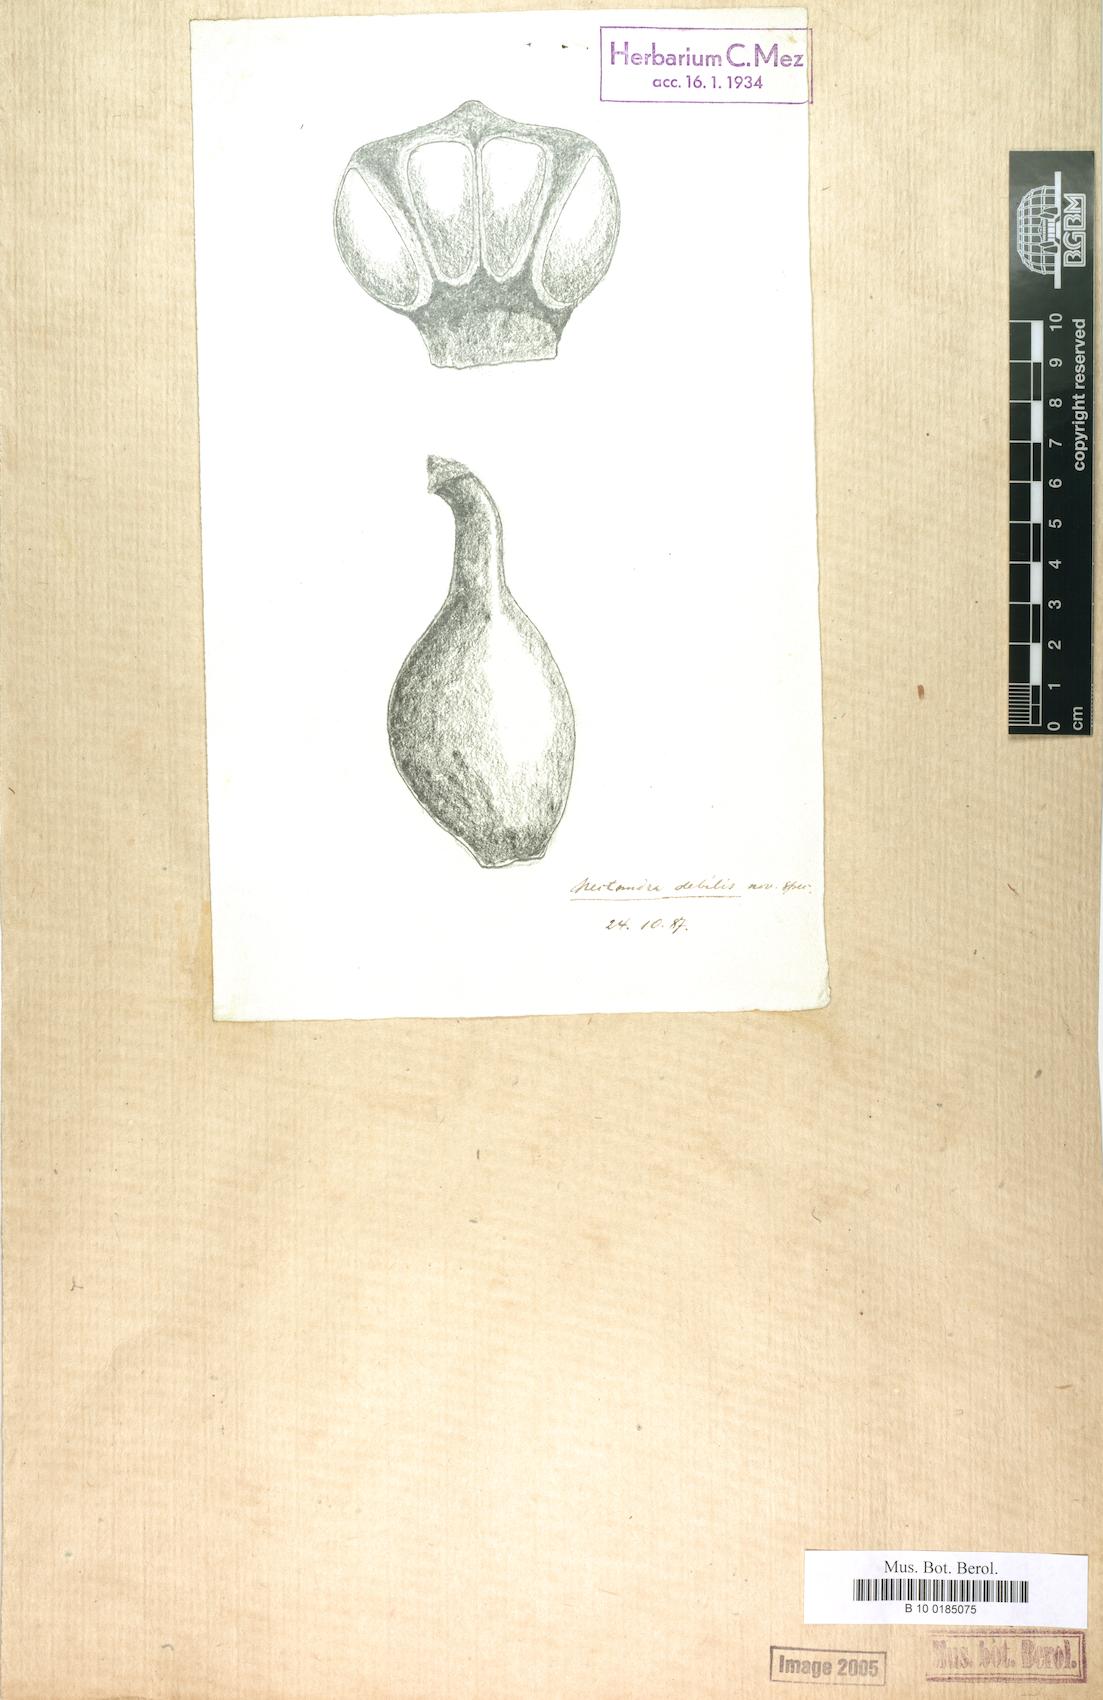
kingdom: Plantae
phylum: Tracheophyta
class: Magnoliopsida
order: Laurales
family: Lauraceae
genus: Nectandra
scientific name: Nectandra debilis
